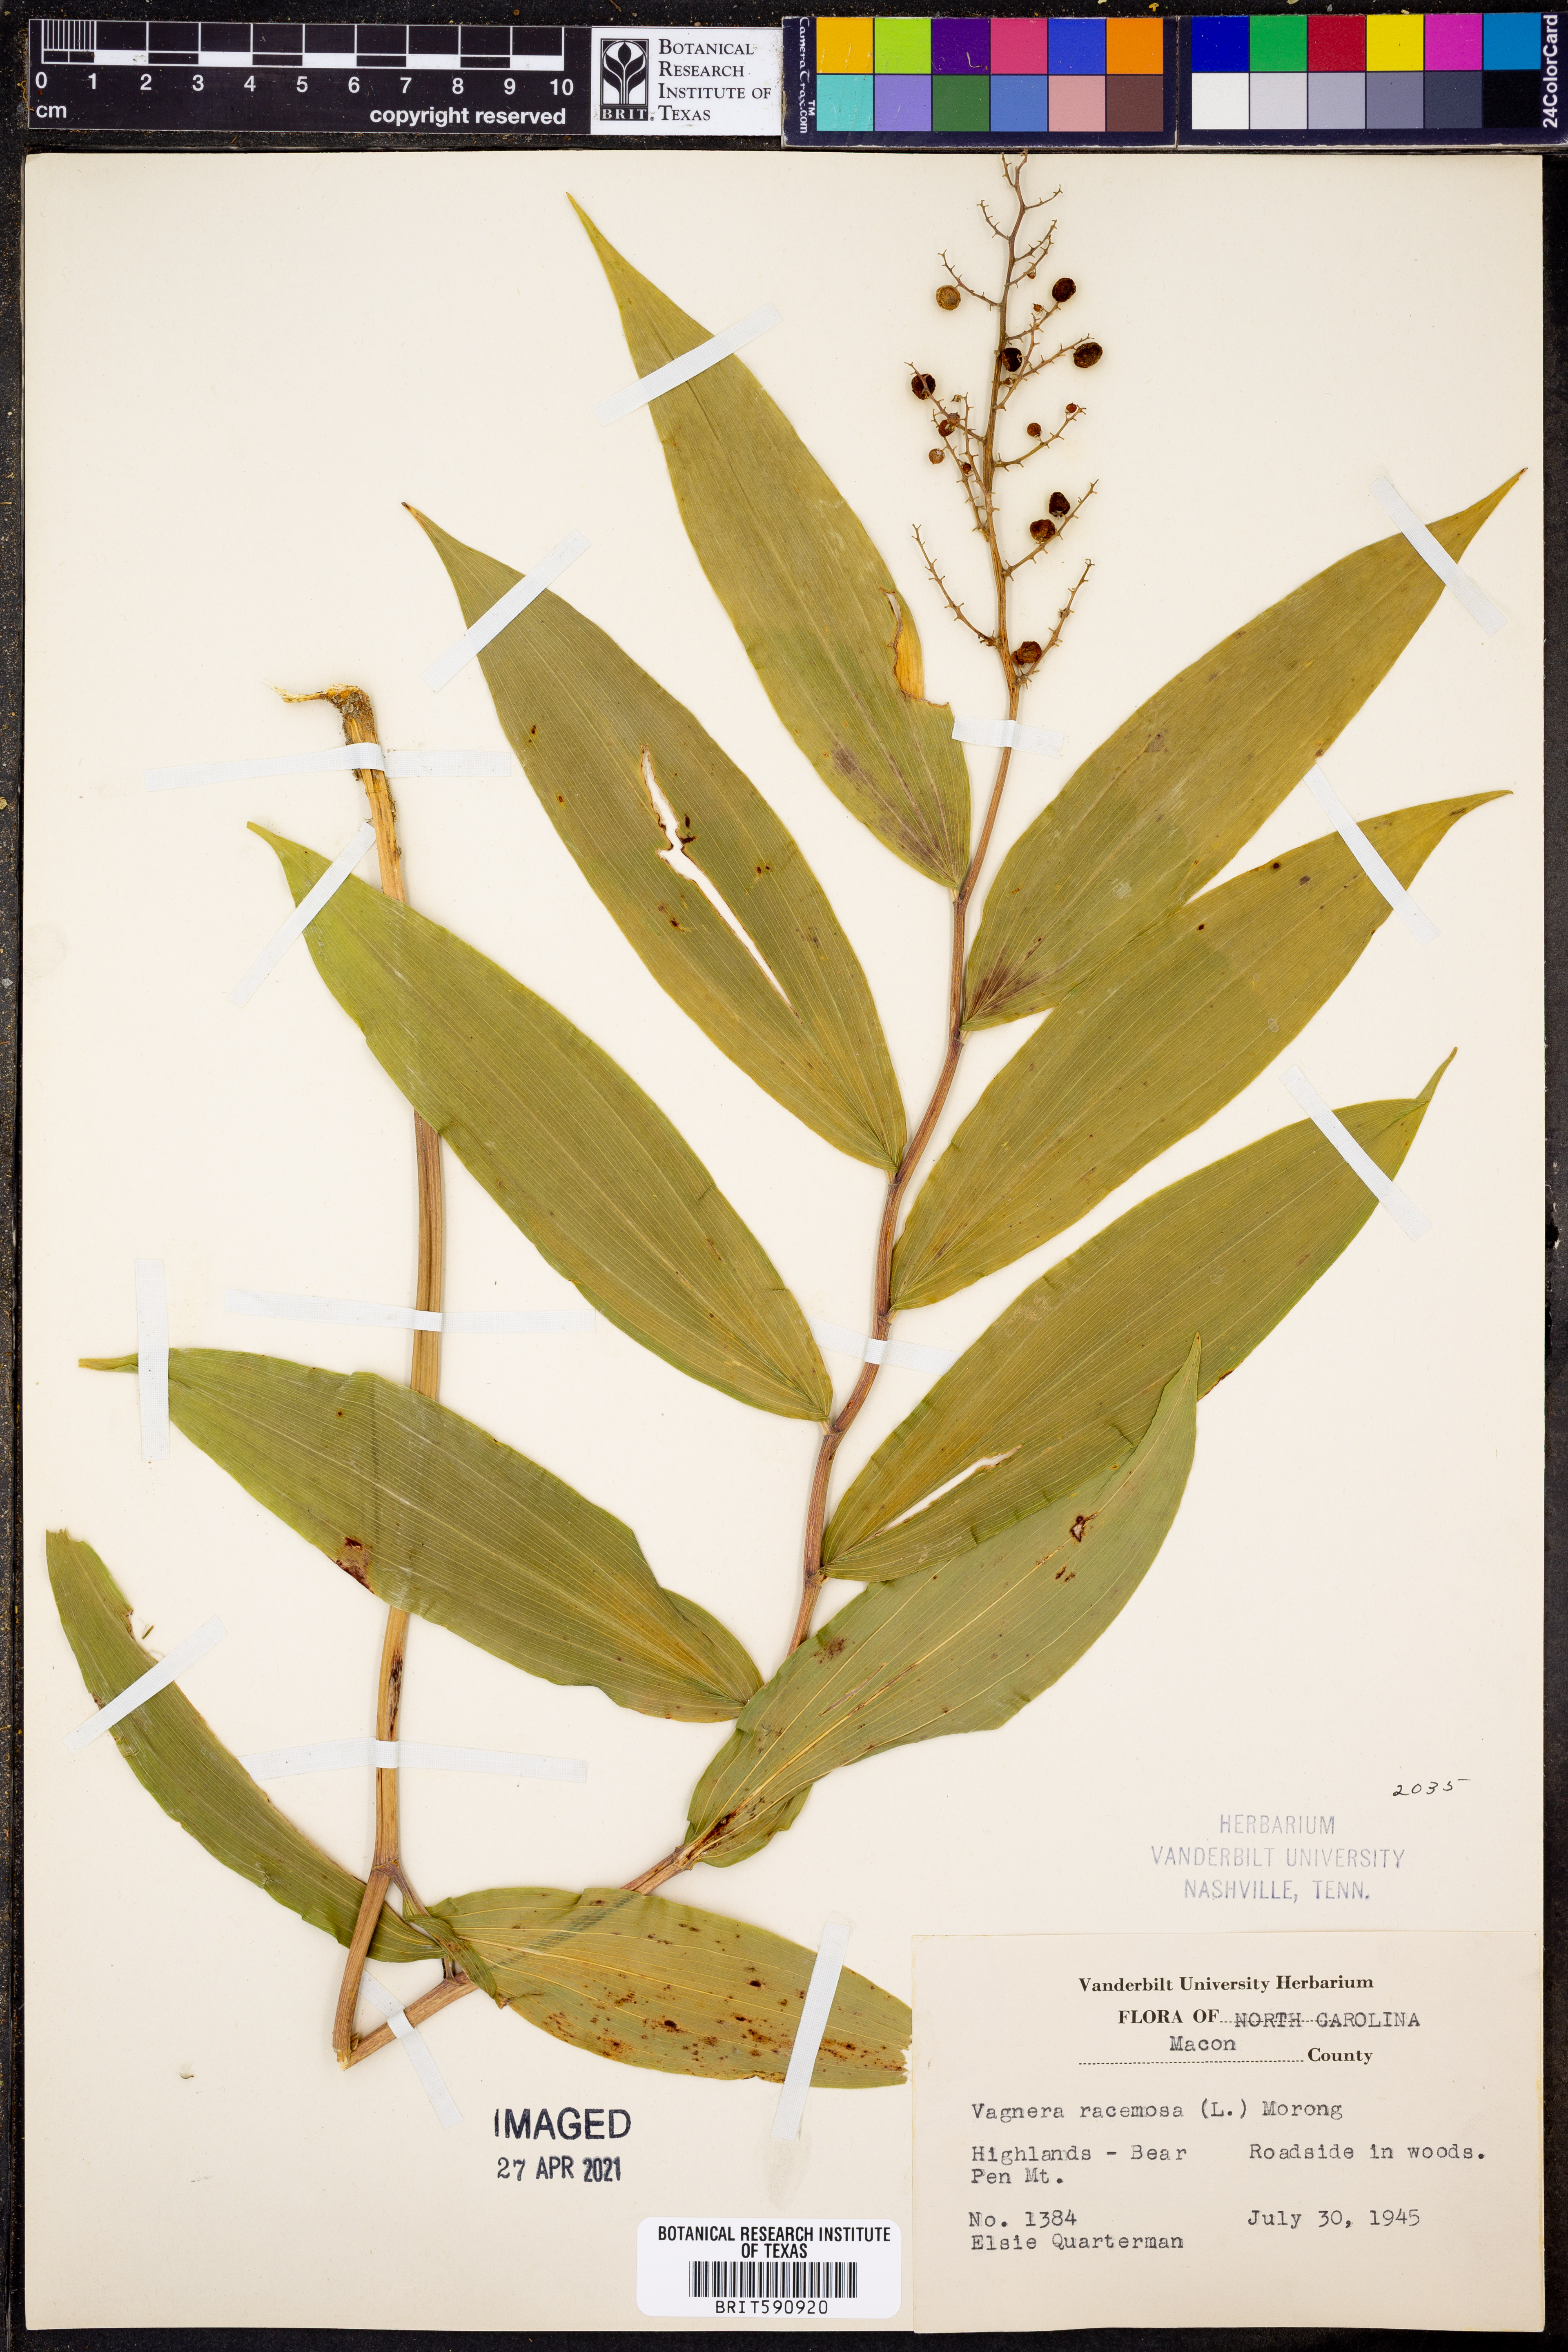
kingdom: Plantae
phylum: Tracheophyta
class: Liliopsida
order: Asparagales
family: Asparagaceae
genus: Maianthemum
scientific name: Maianthemum racemosum
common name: False spikenard
